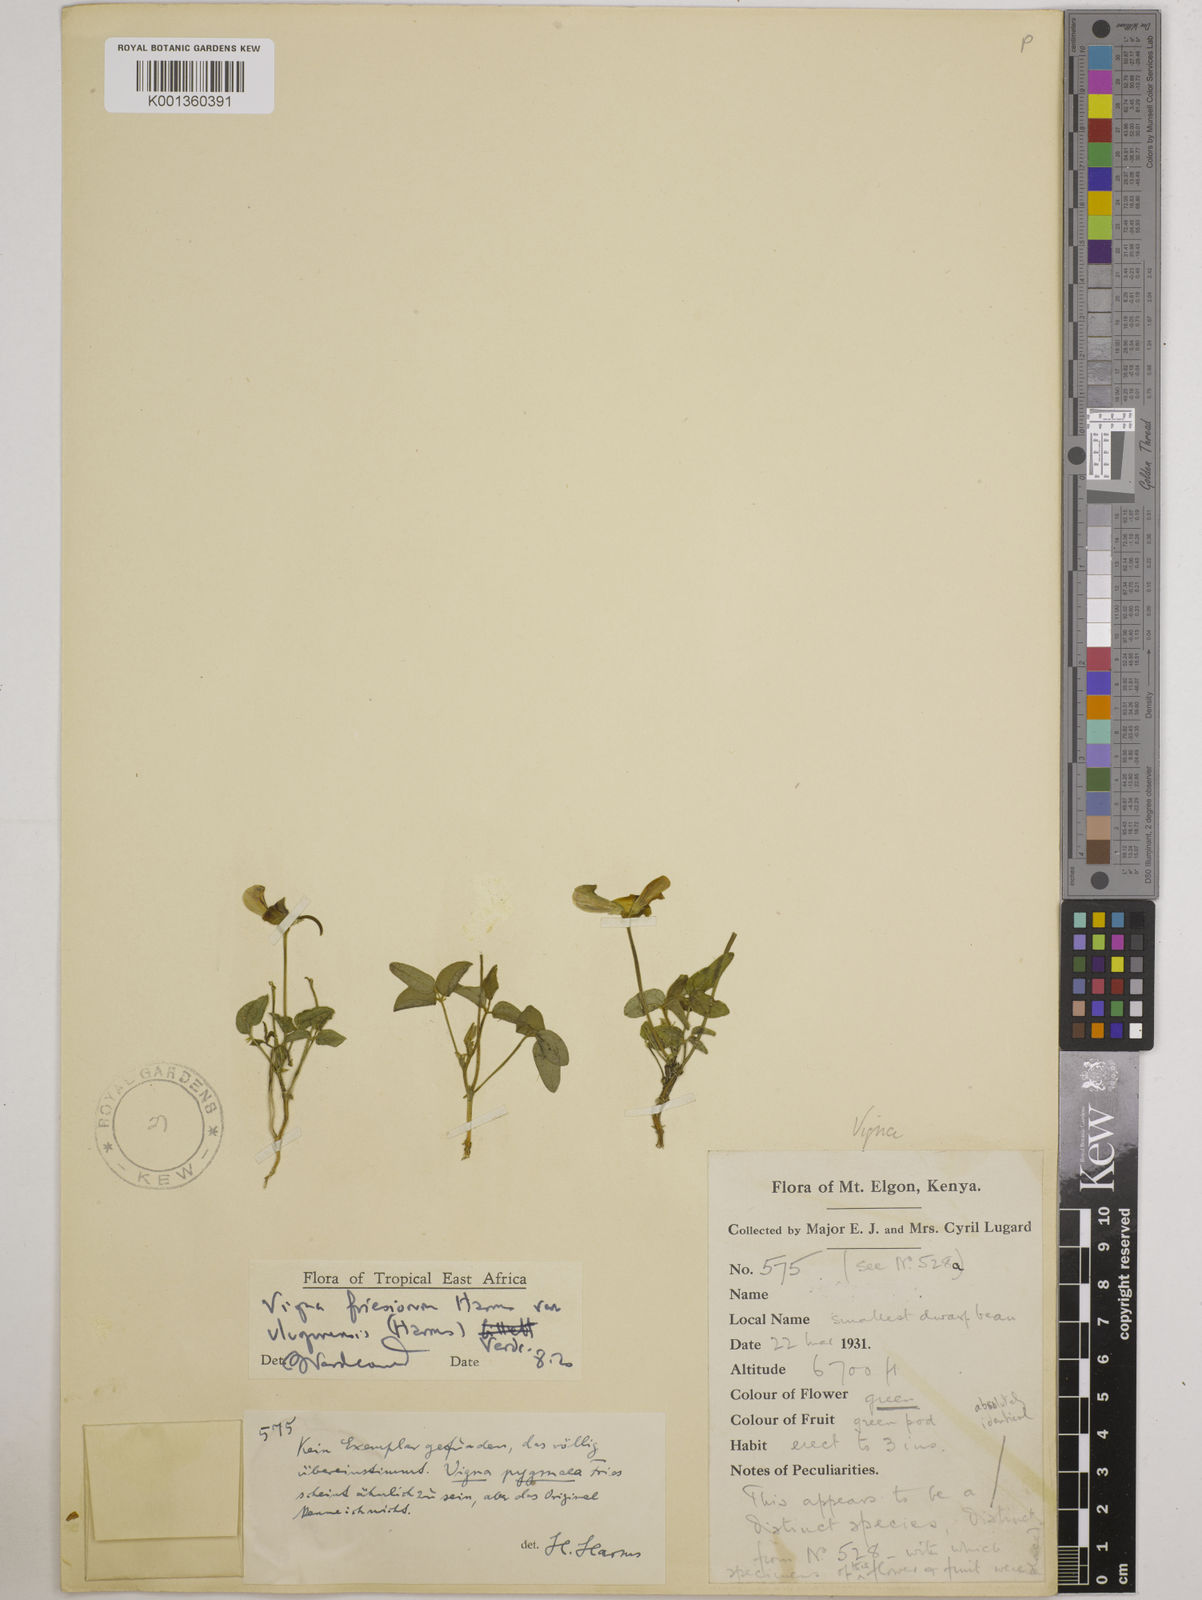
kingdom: Plantae
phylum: Tracheophyta
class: Magnoliopsida
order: Fabales
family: Fabaceae
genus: Vigna
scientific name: Vigna
